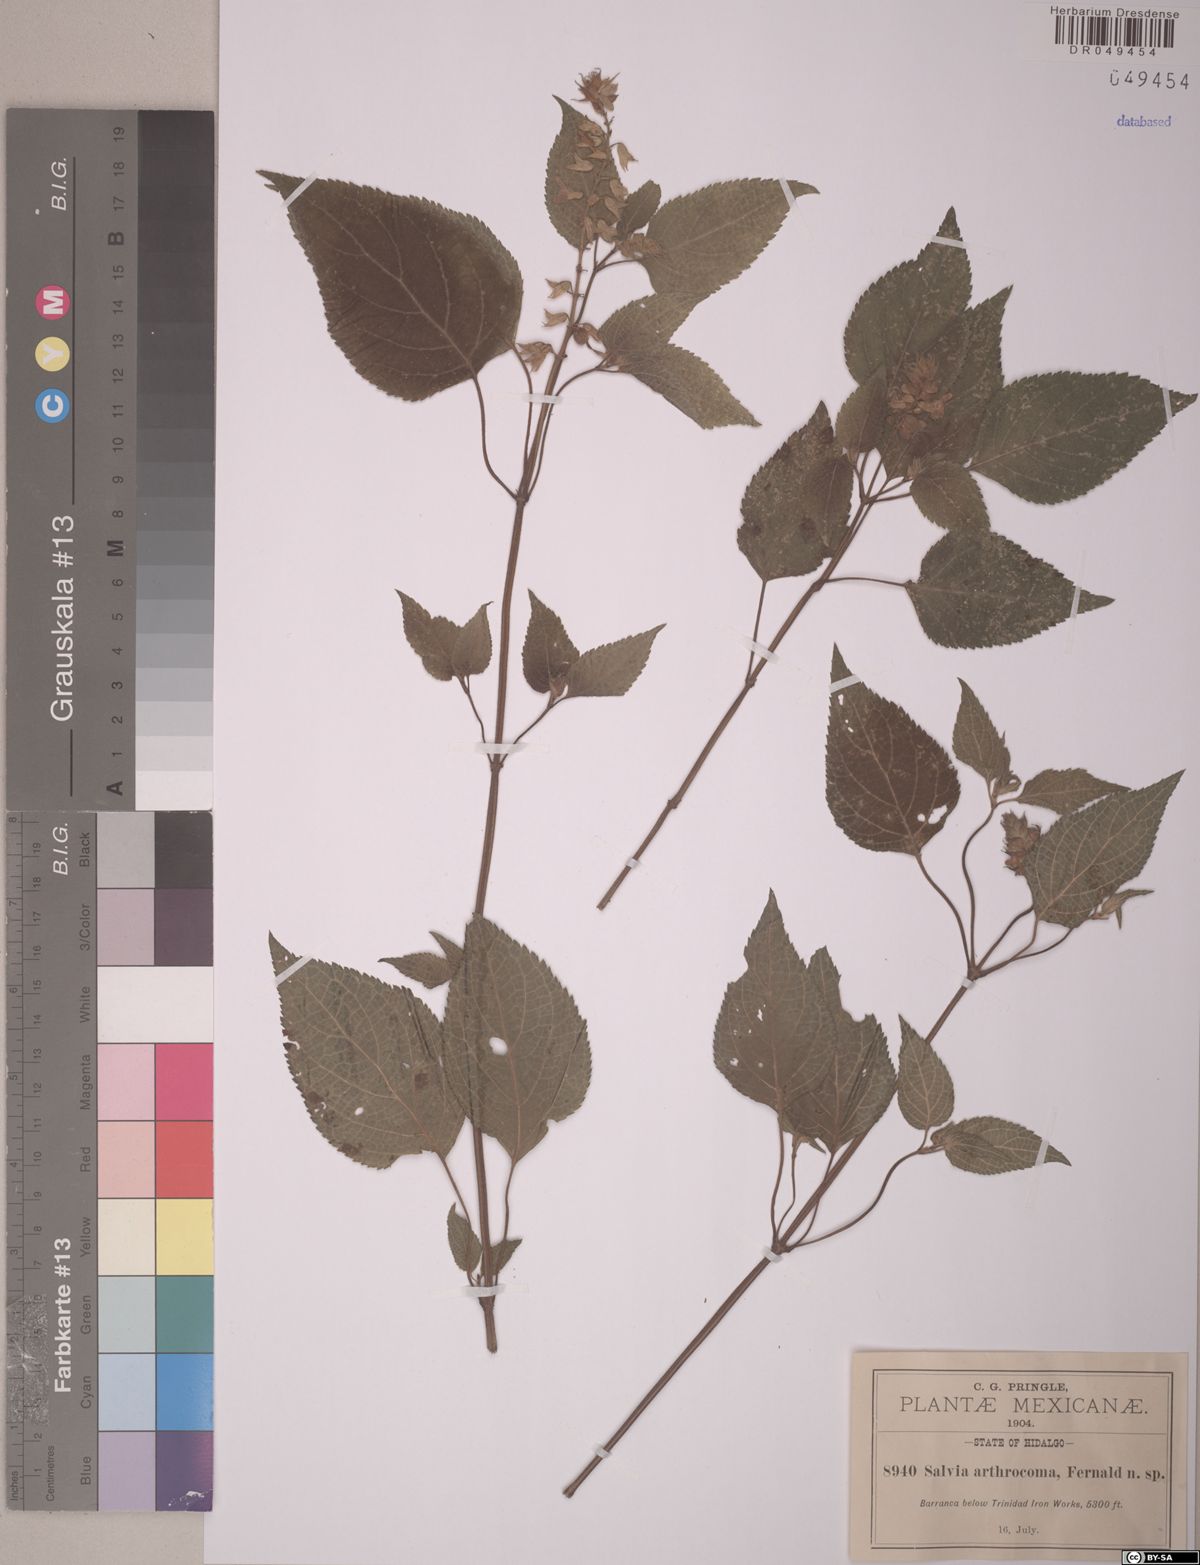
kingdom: Plantae
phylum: Tracheophyta
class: Magnoliopsida
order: Lamiales
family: Lamiaceae
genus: Salvia
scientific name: Salvia arthrocoma
